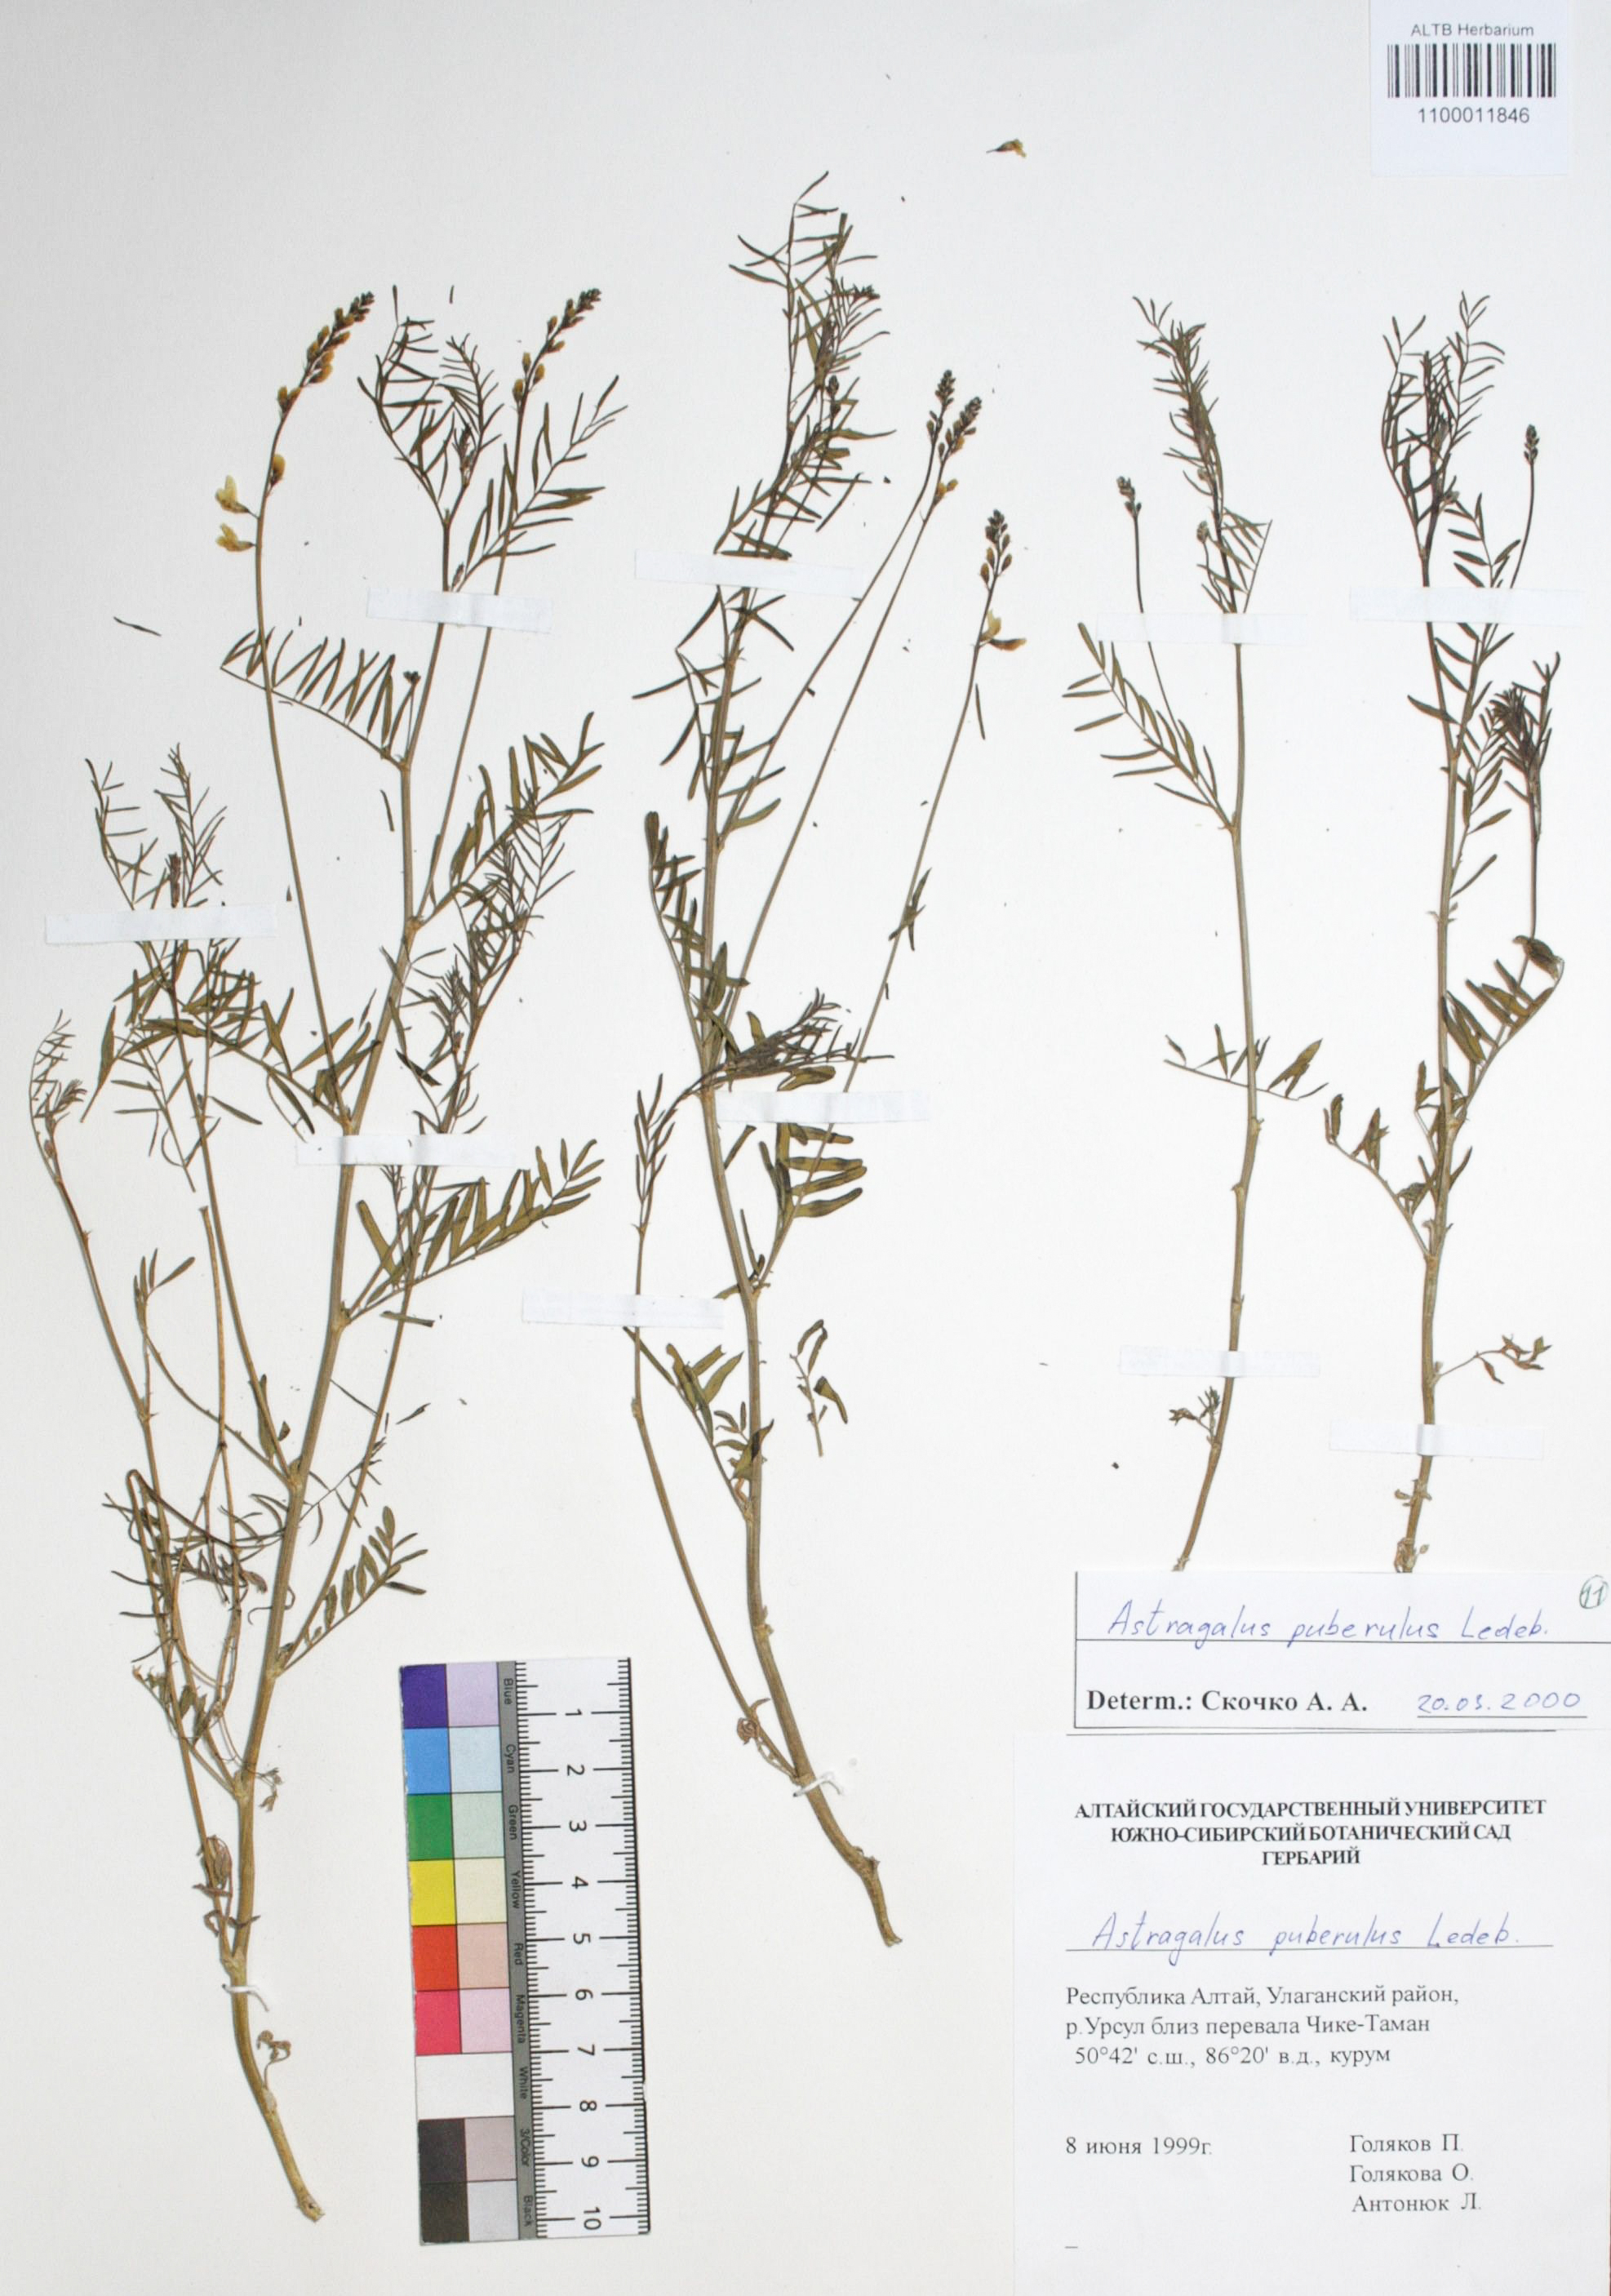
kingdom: Plantae
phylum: Tracheophyta
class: Magnoliopsida
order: Fabales
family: Fabaceae
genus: Astragalus
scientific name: Astragalus puberulus
